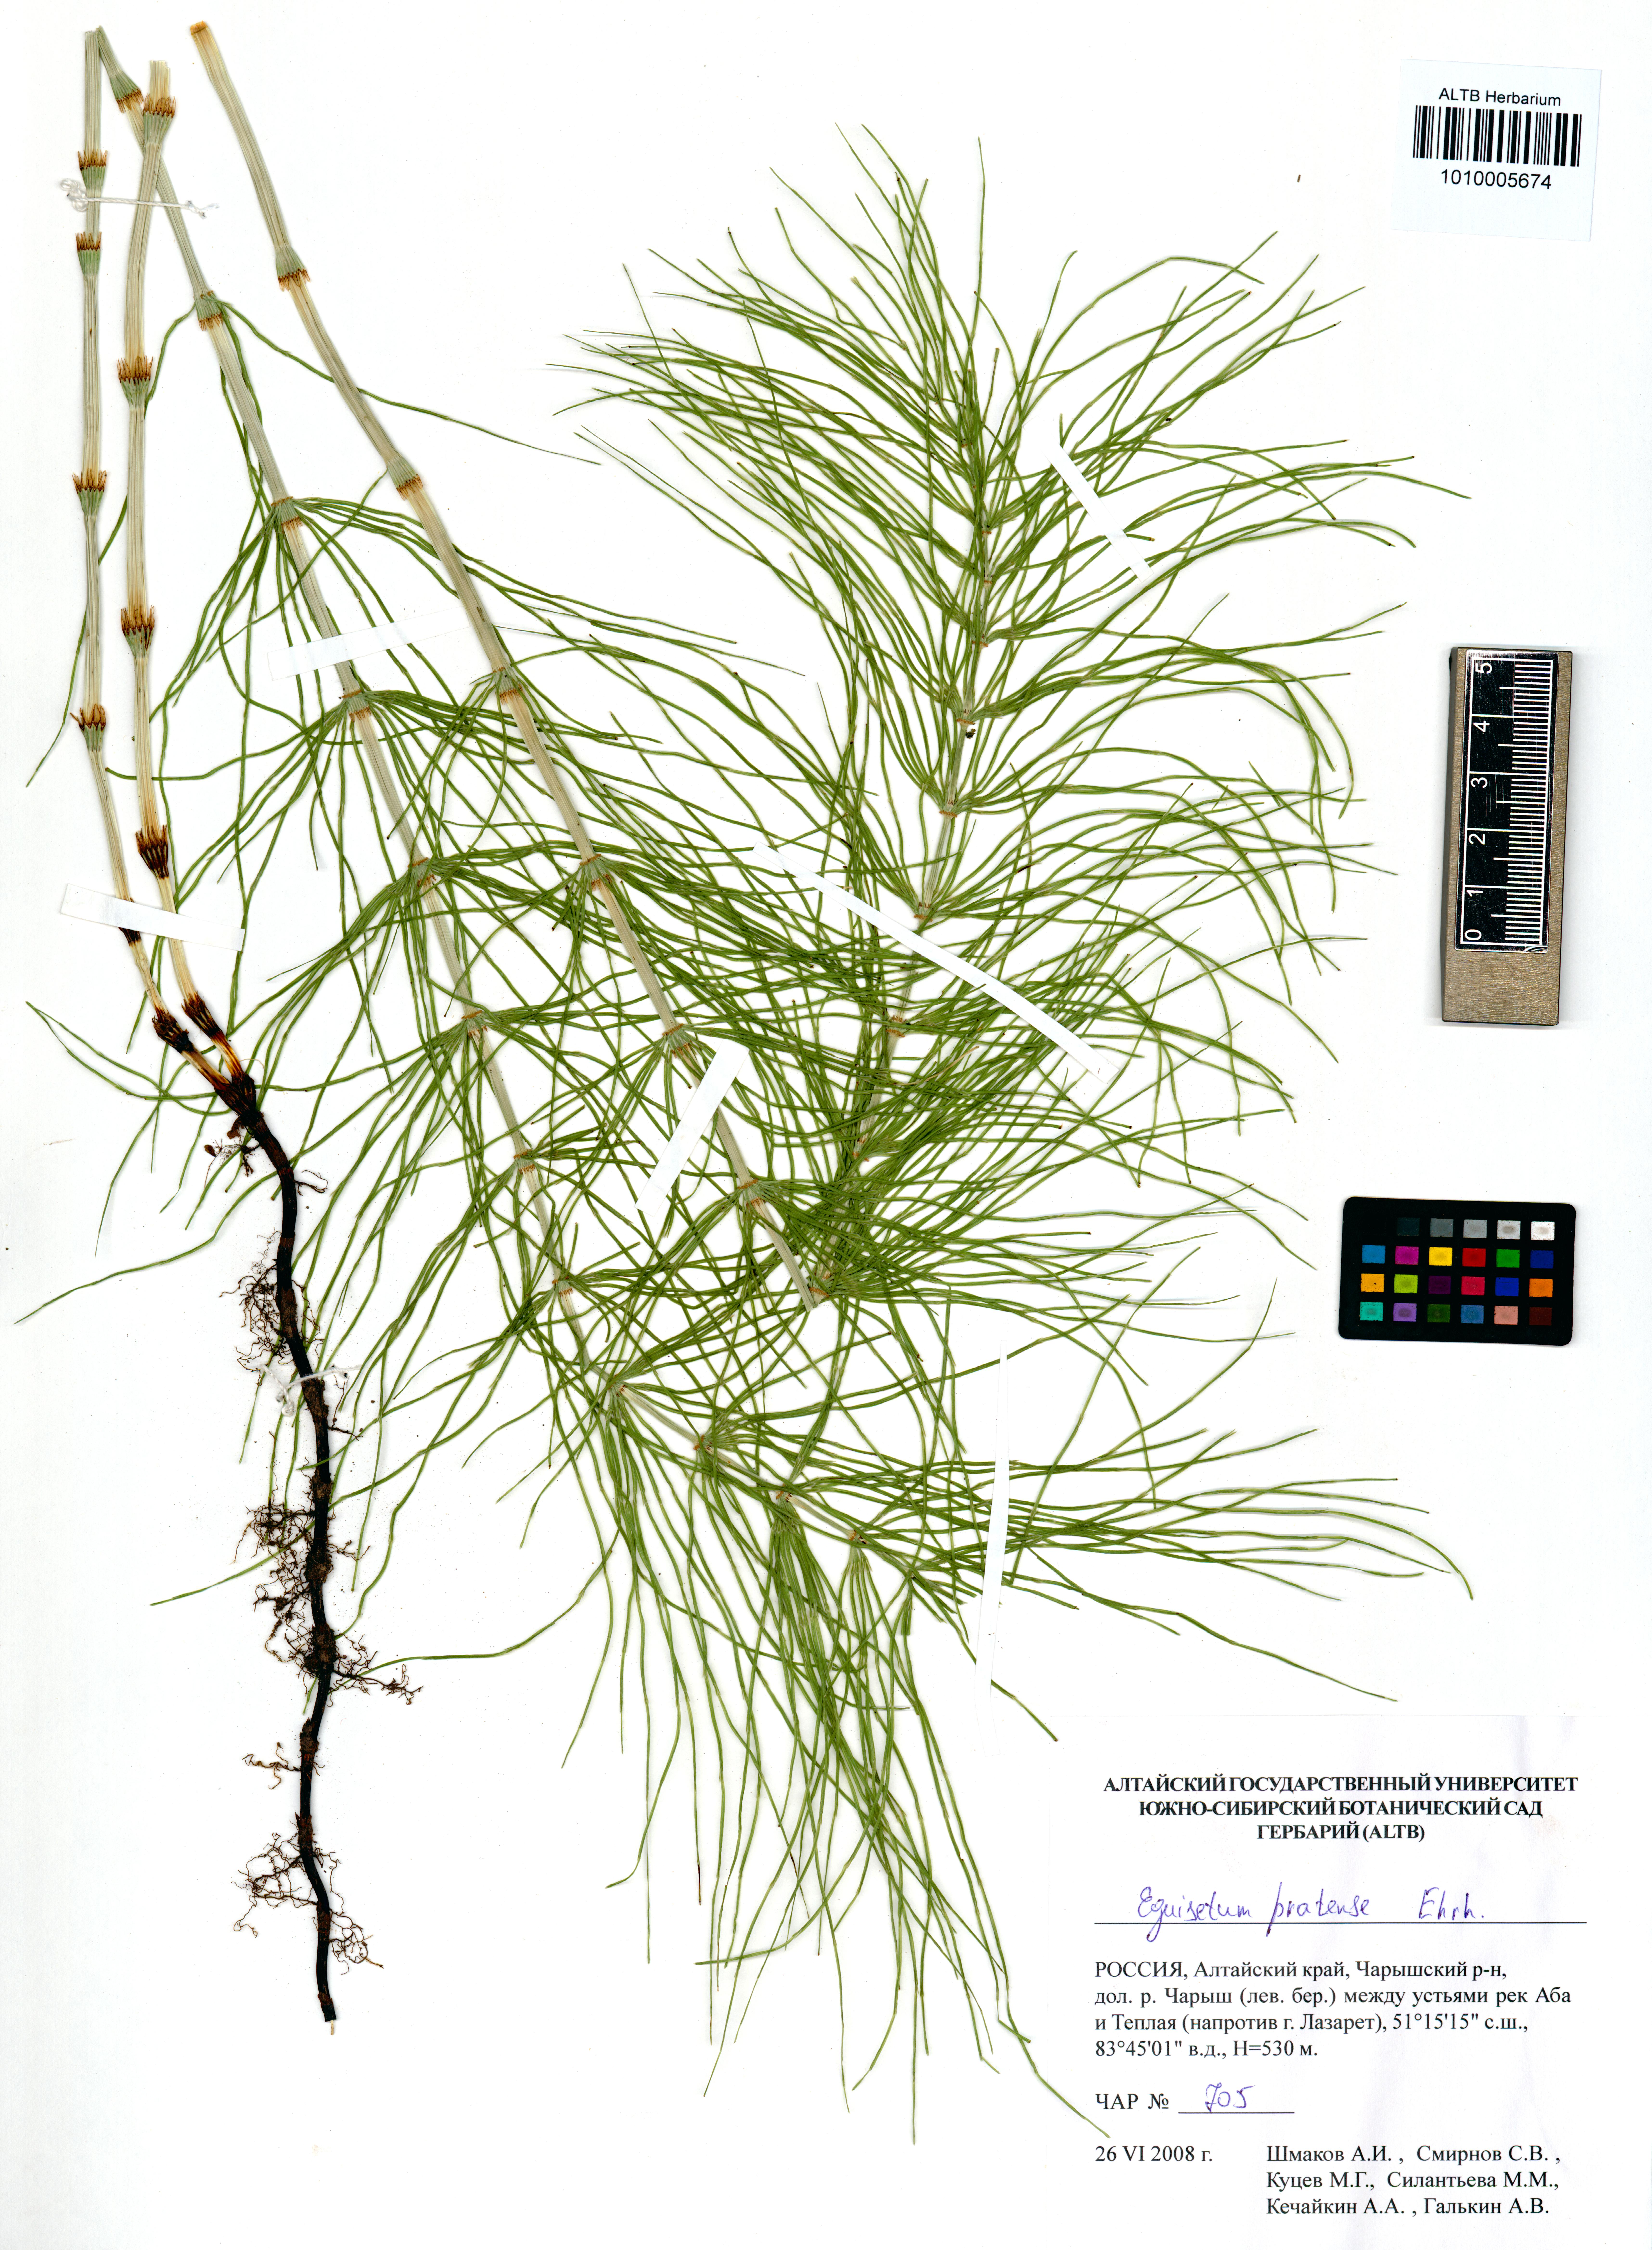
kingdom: Plantae
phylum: Tracheophyta
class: Polypodiopsida
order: Equisetales
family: Equisetaceae
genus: Equisetum
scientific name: Equisetum pratense
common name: Meadow horsetail
